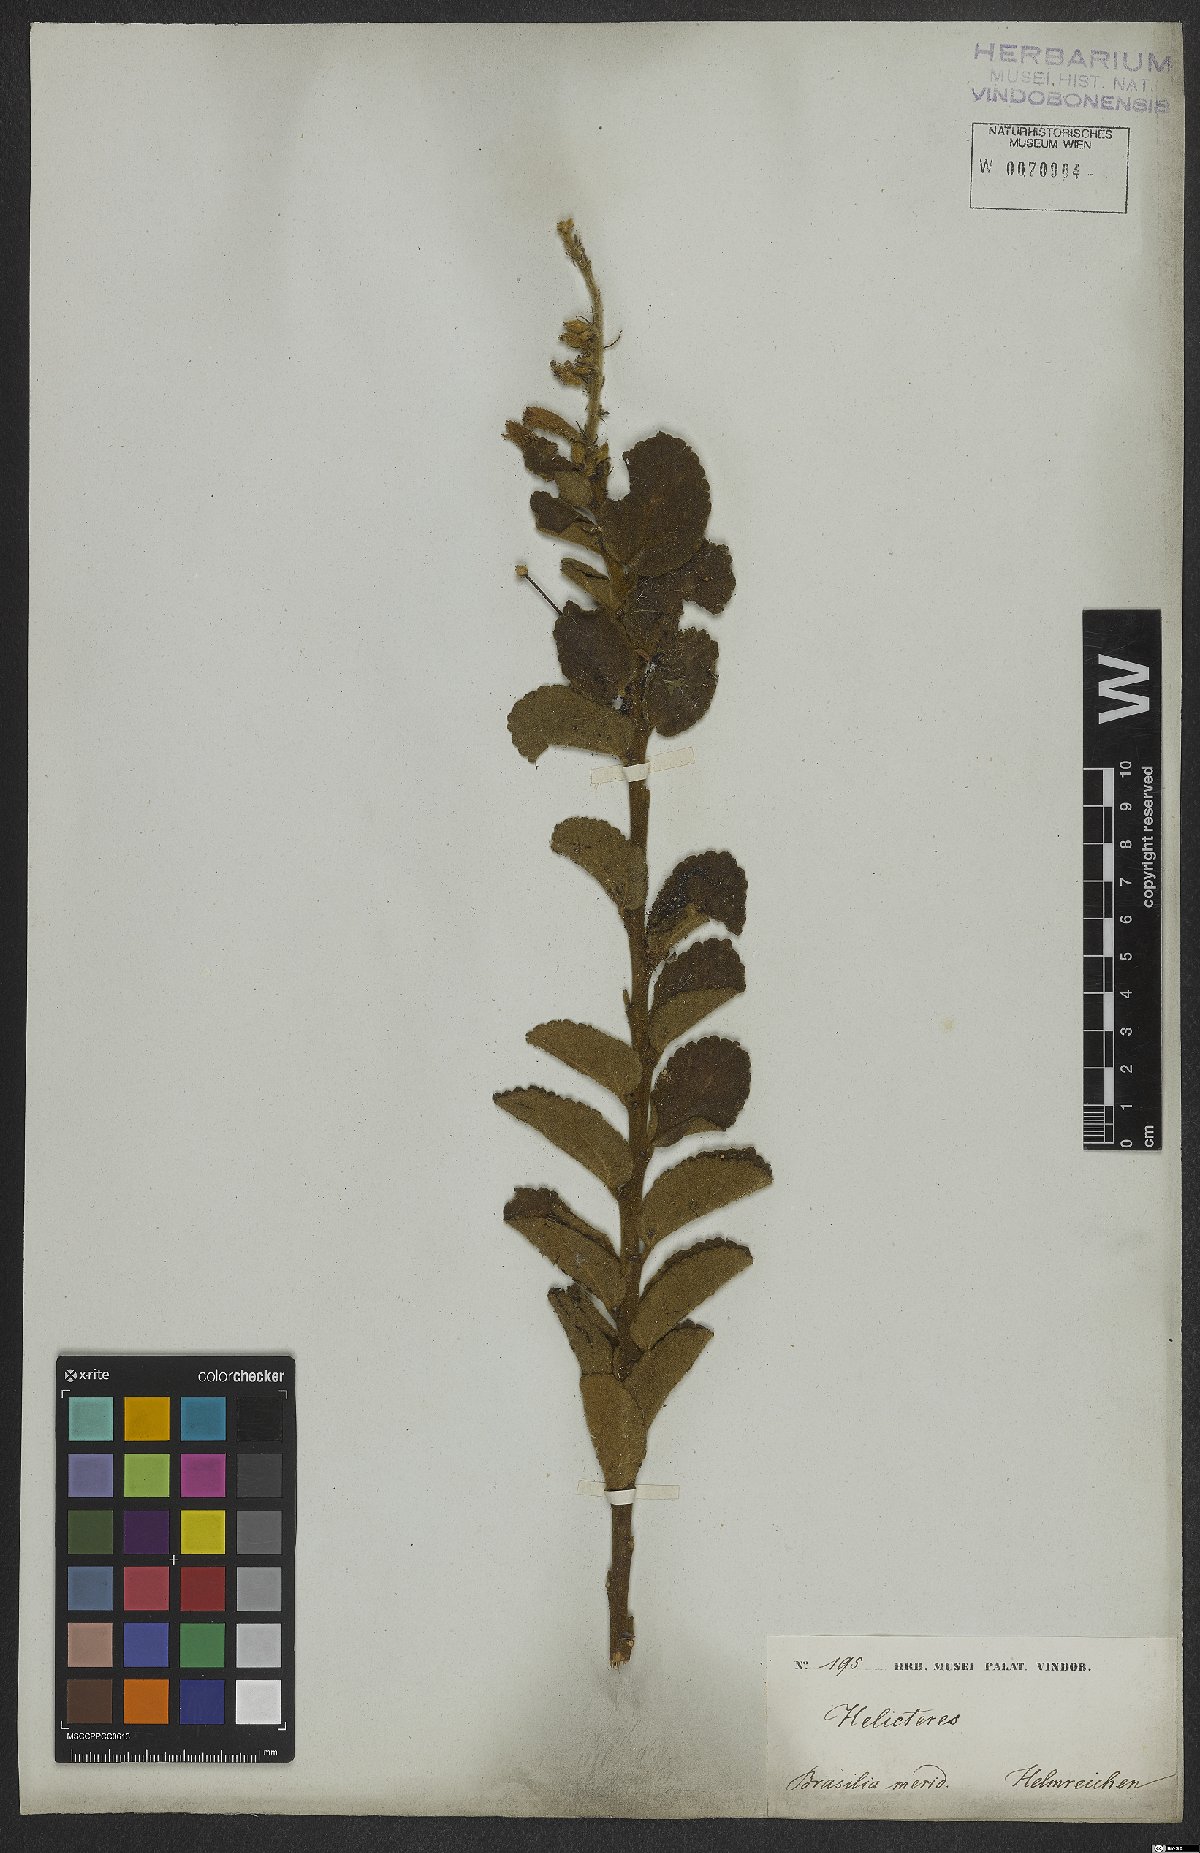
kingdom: Plantae
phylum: Tracheophyta
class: Magnoliopsida
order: Malvales
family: Malvaceae
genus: Helicteres
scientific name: Helicteres sacarolha
